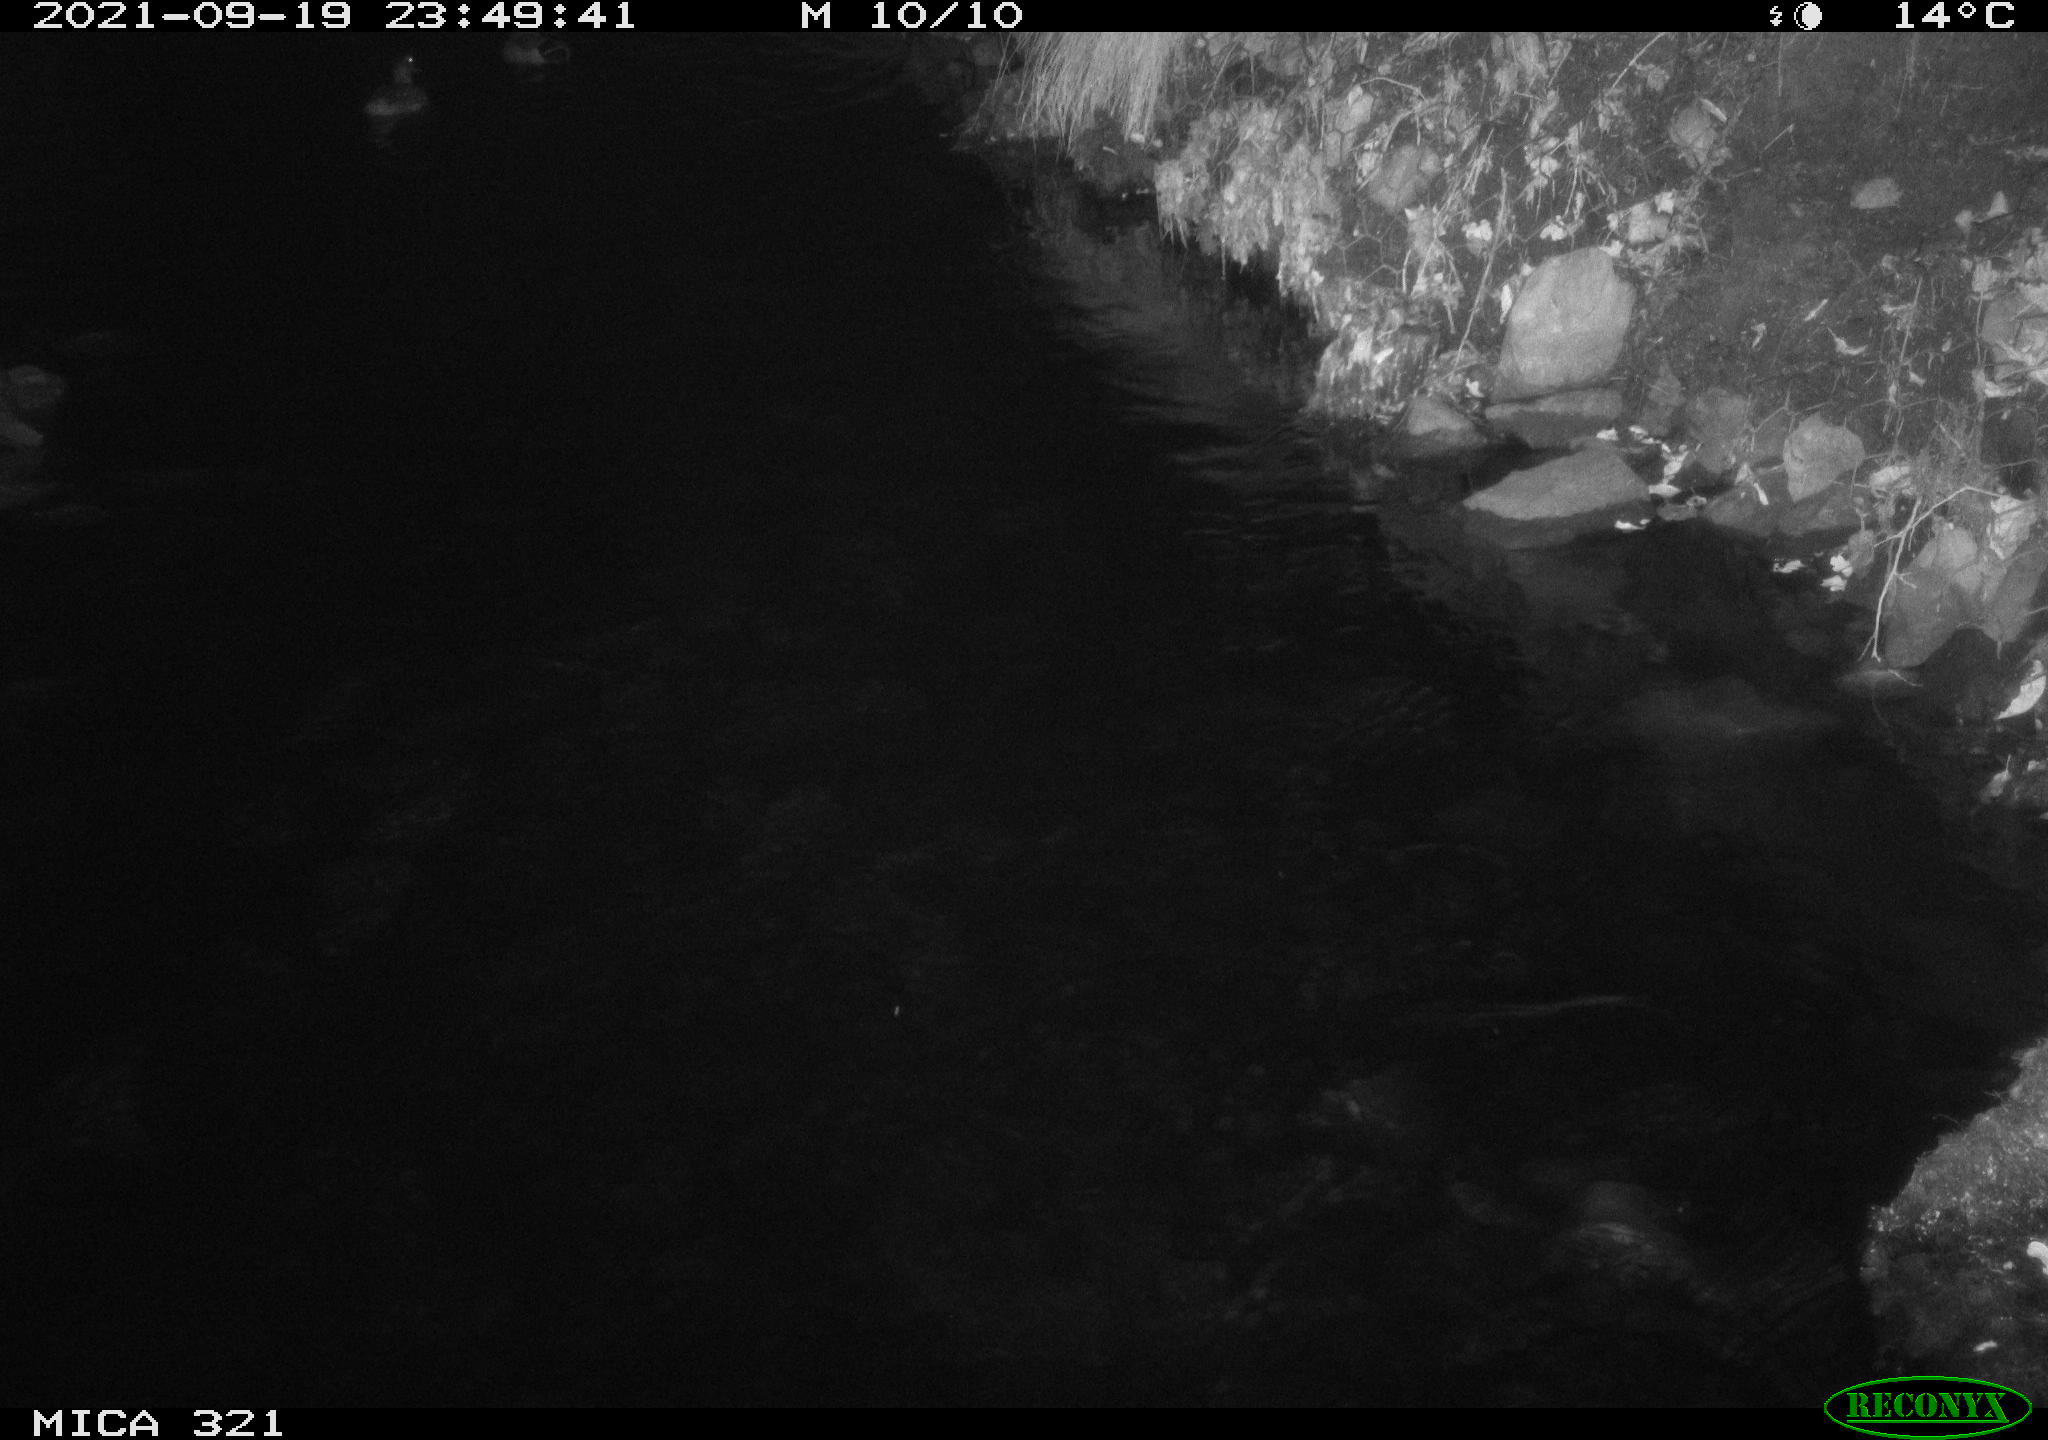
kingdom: Animalia
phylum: Chordata
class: Aves
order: Anseriformes
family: Anatidae
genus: Anas
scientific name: Anas platyrhynchos
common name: Mallard
